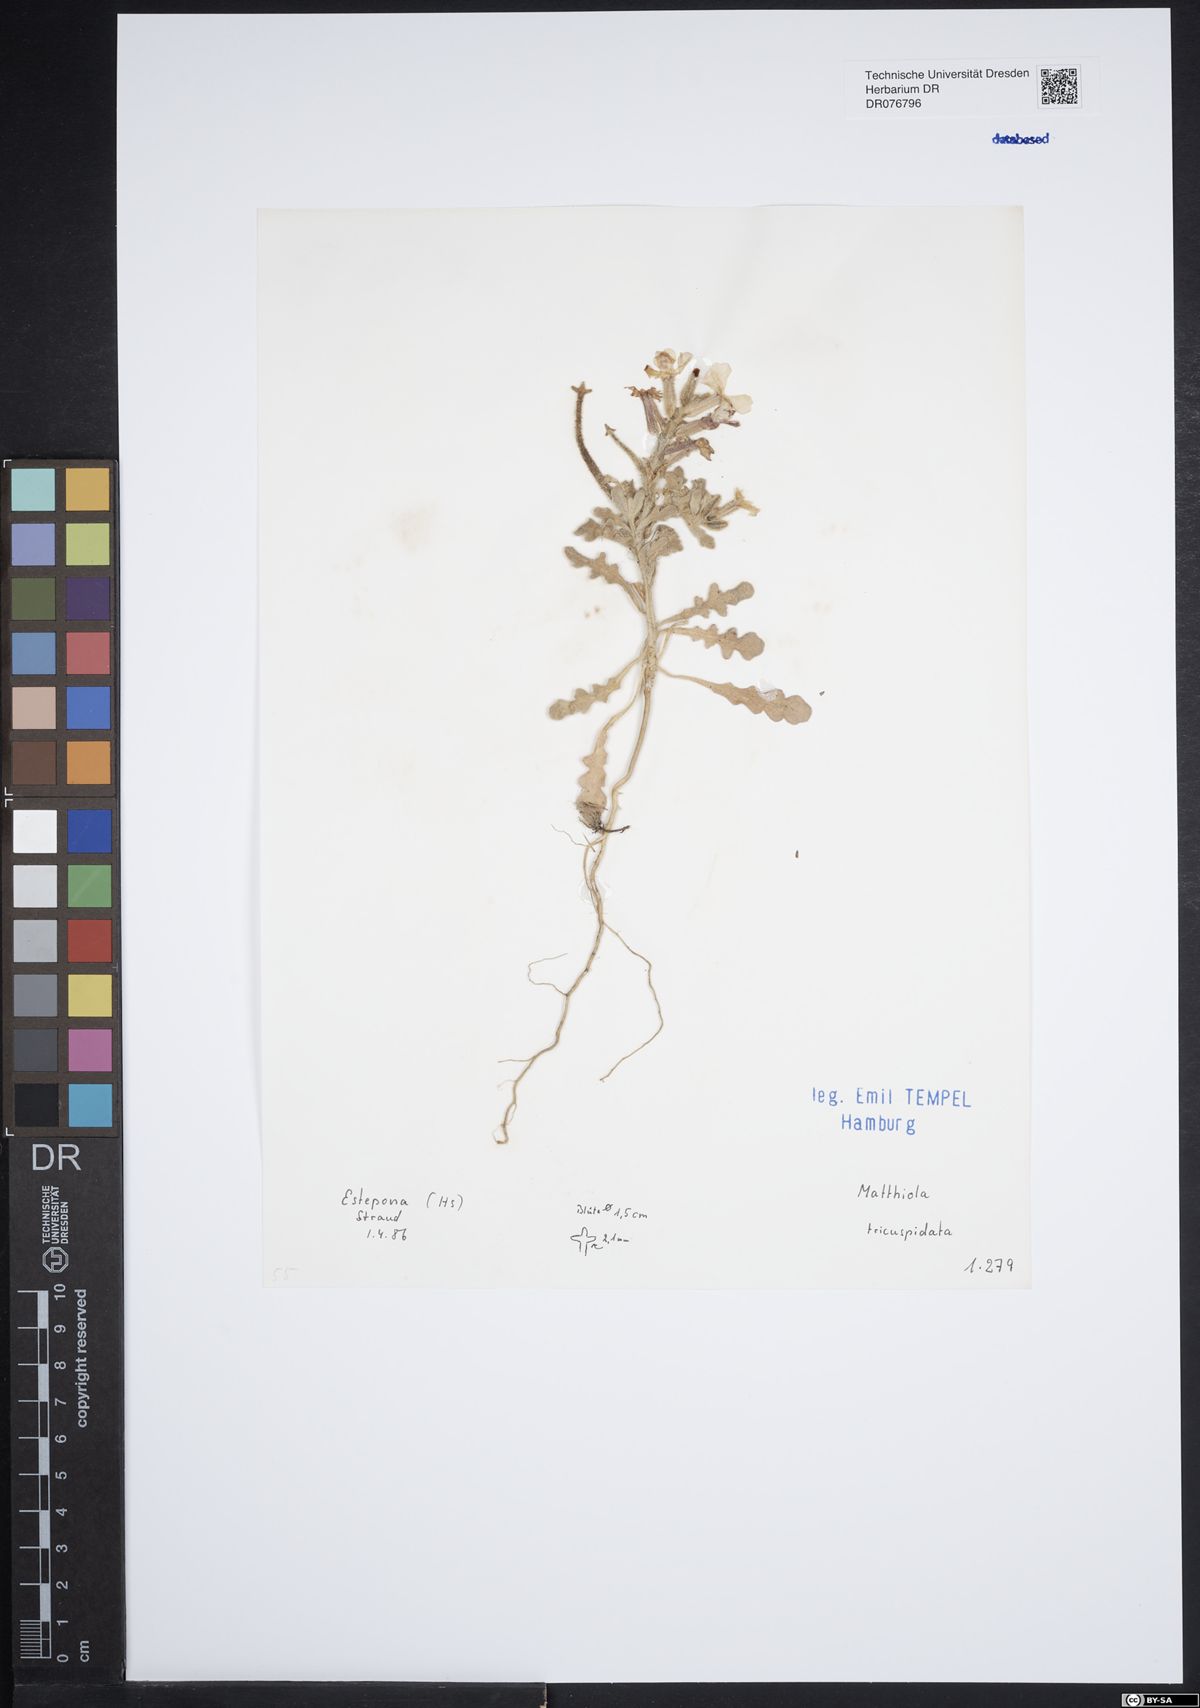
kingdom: Plantae
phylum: Tracheophyta
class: Magnoliopsida
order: Brassicales
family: Brassicaceae
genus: Matthiola
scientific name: Matthiola tricuspidata
